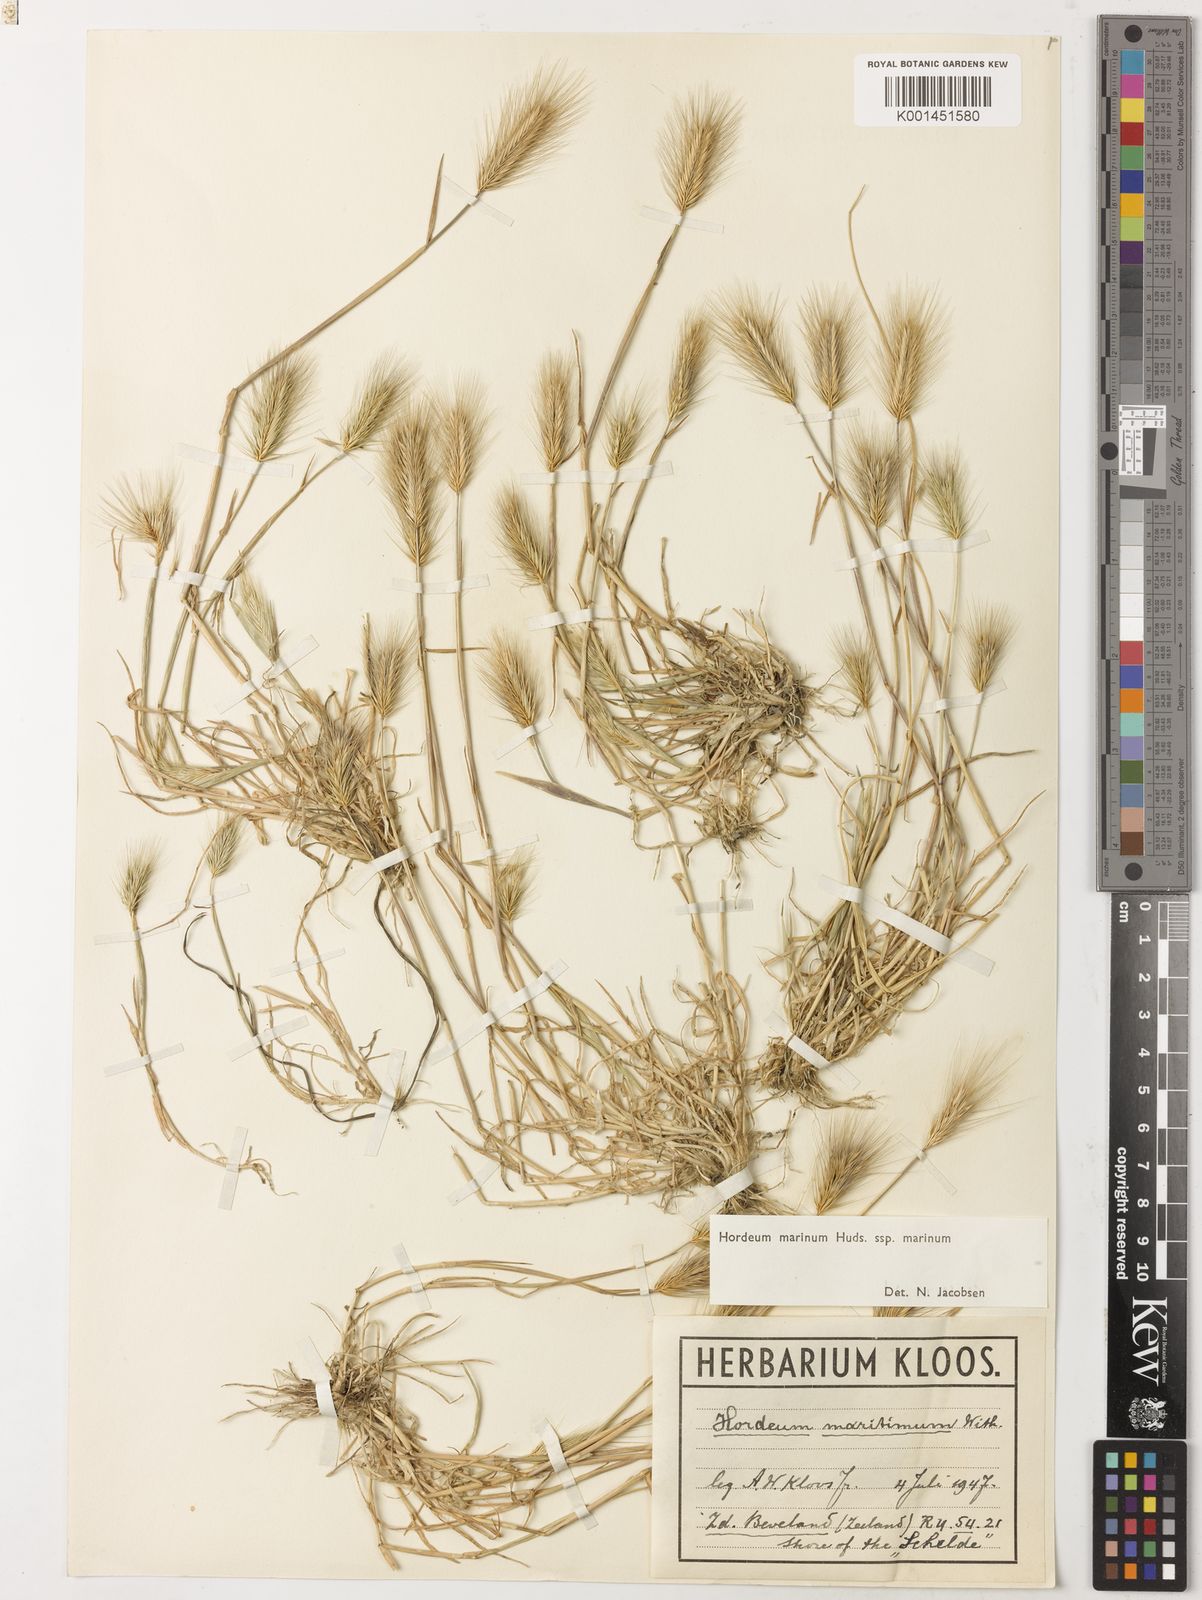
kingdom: Plantae
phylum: Tracheophyta
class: Liliopsida
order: Poales
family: Poaceae
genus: Hordeum
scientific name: Hordeum marinum
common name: Sea barley
